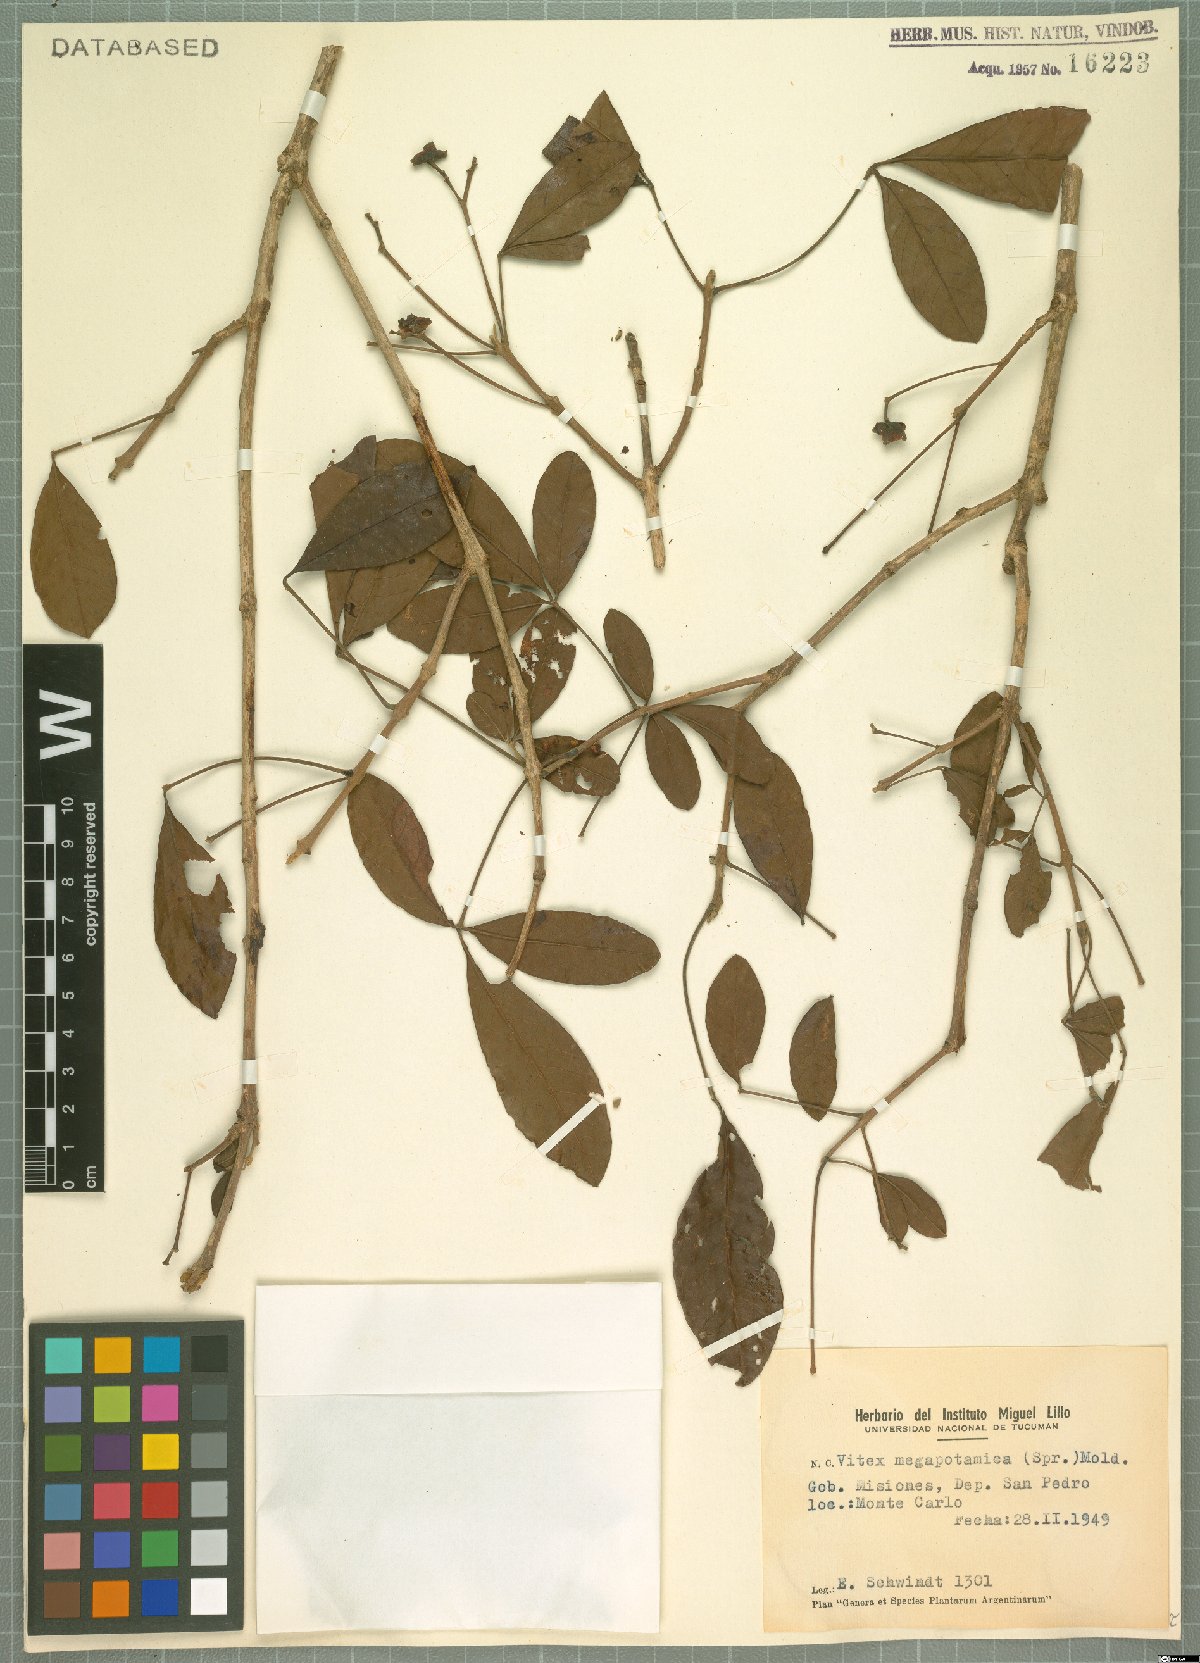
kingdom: Plantae
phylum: Tracheophyta
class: Magnoliopsida
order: Lamiales
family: Lamiaceae
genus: Vitex
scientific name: Vitex megapotamica
